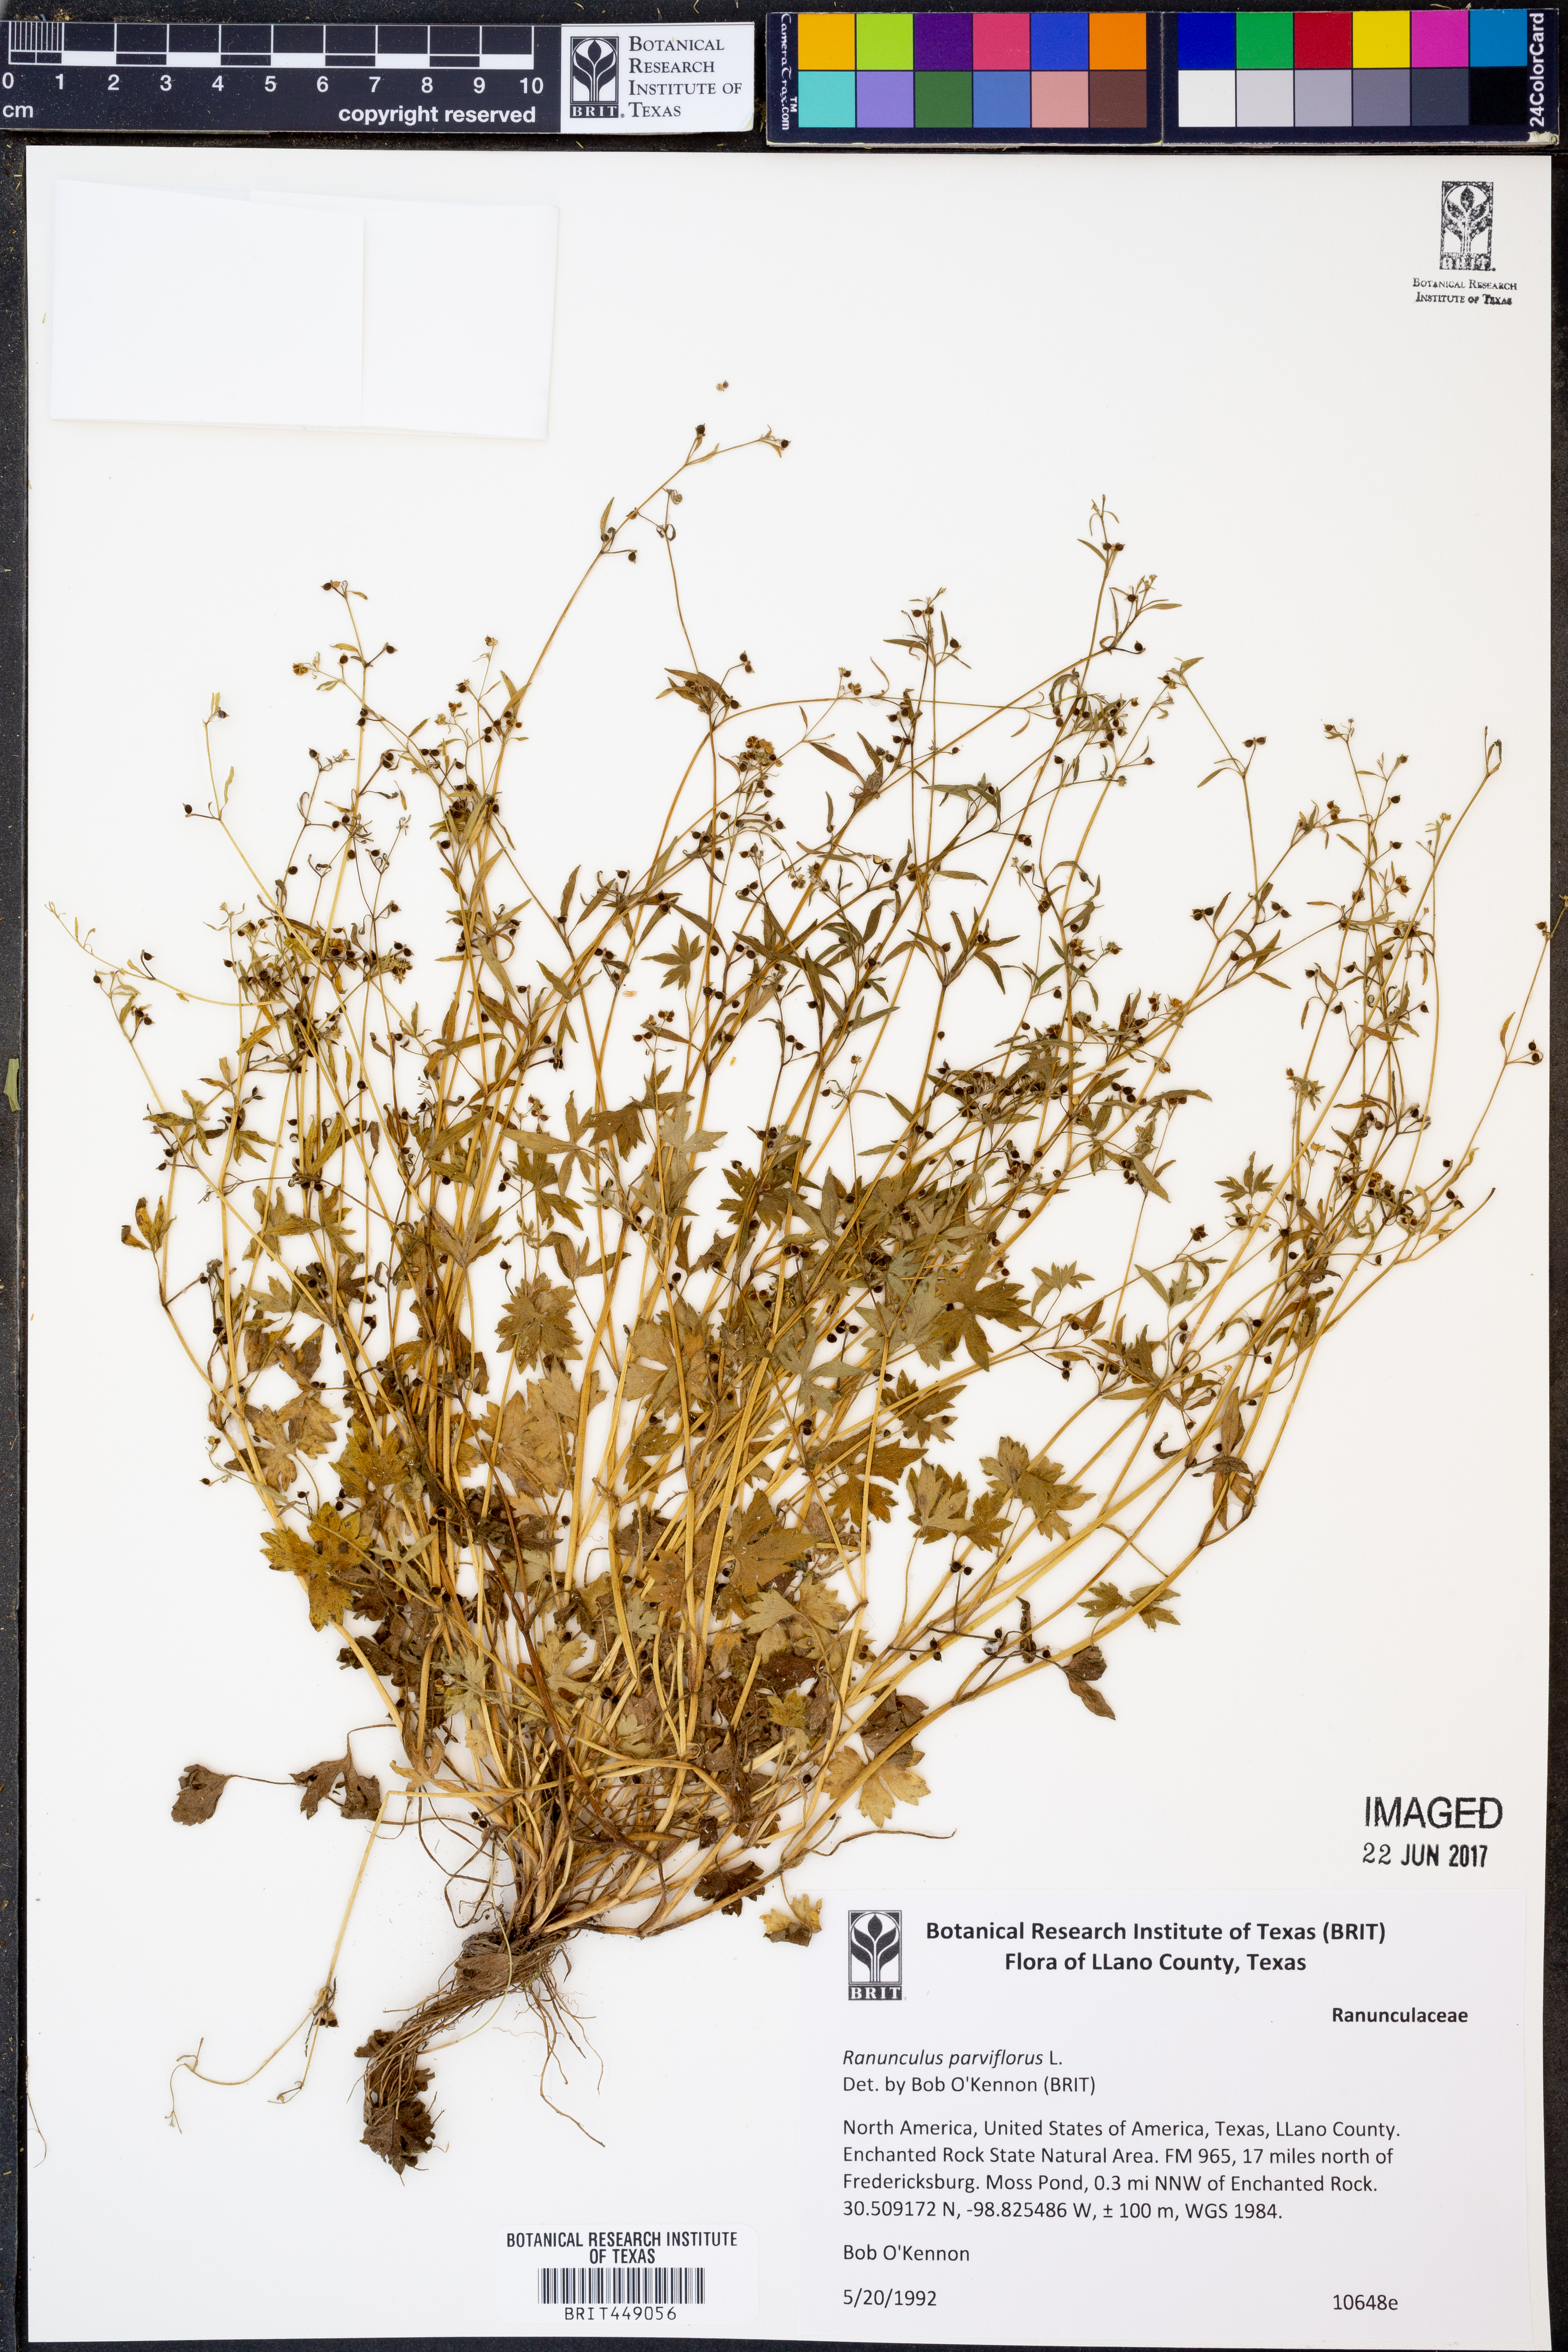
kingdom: Plantae
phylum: Tracheophyta
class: Magnoliopsida
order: Ranunculales
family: Ranunculaceae
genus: Ranunculus
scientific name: Ranunculus parviflorus
